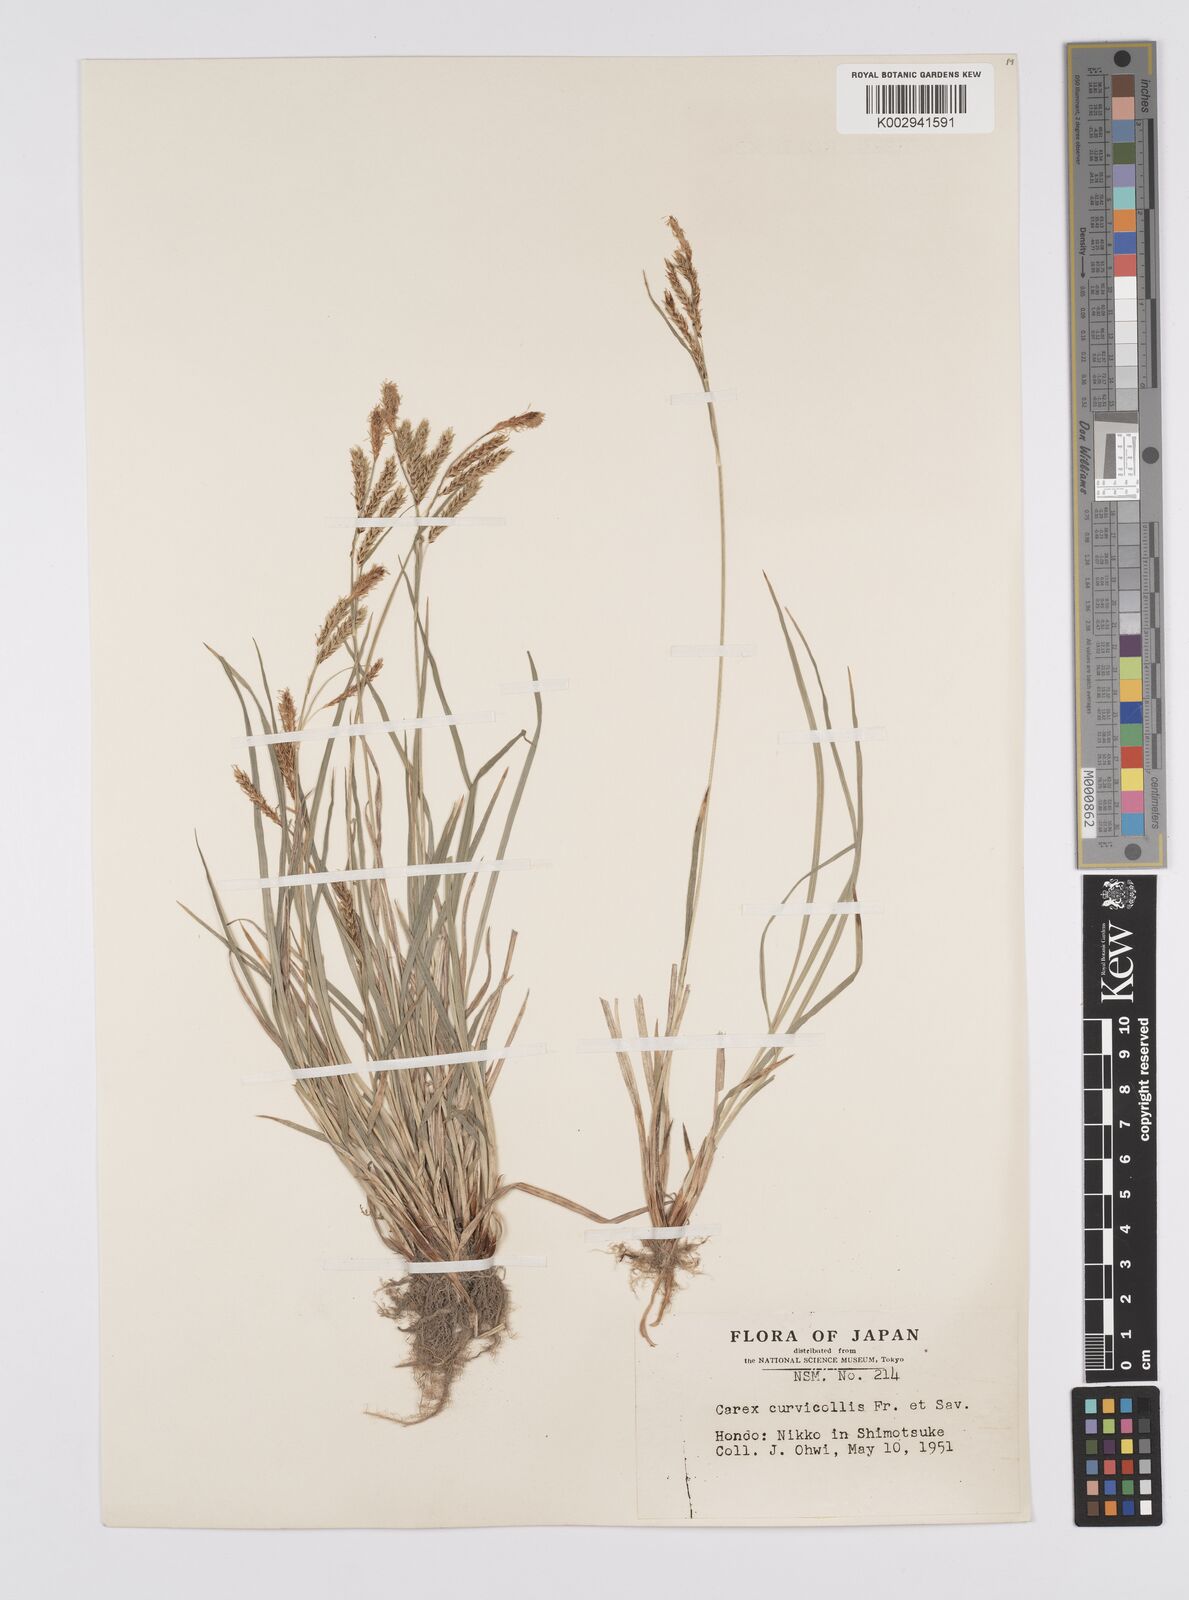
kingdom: Plantae
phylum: Tracheophyta
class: Liliopsida
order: Poales
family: Cyperaceae
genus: Carex
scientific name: Carex curvicollis
